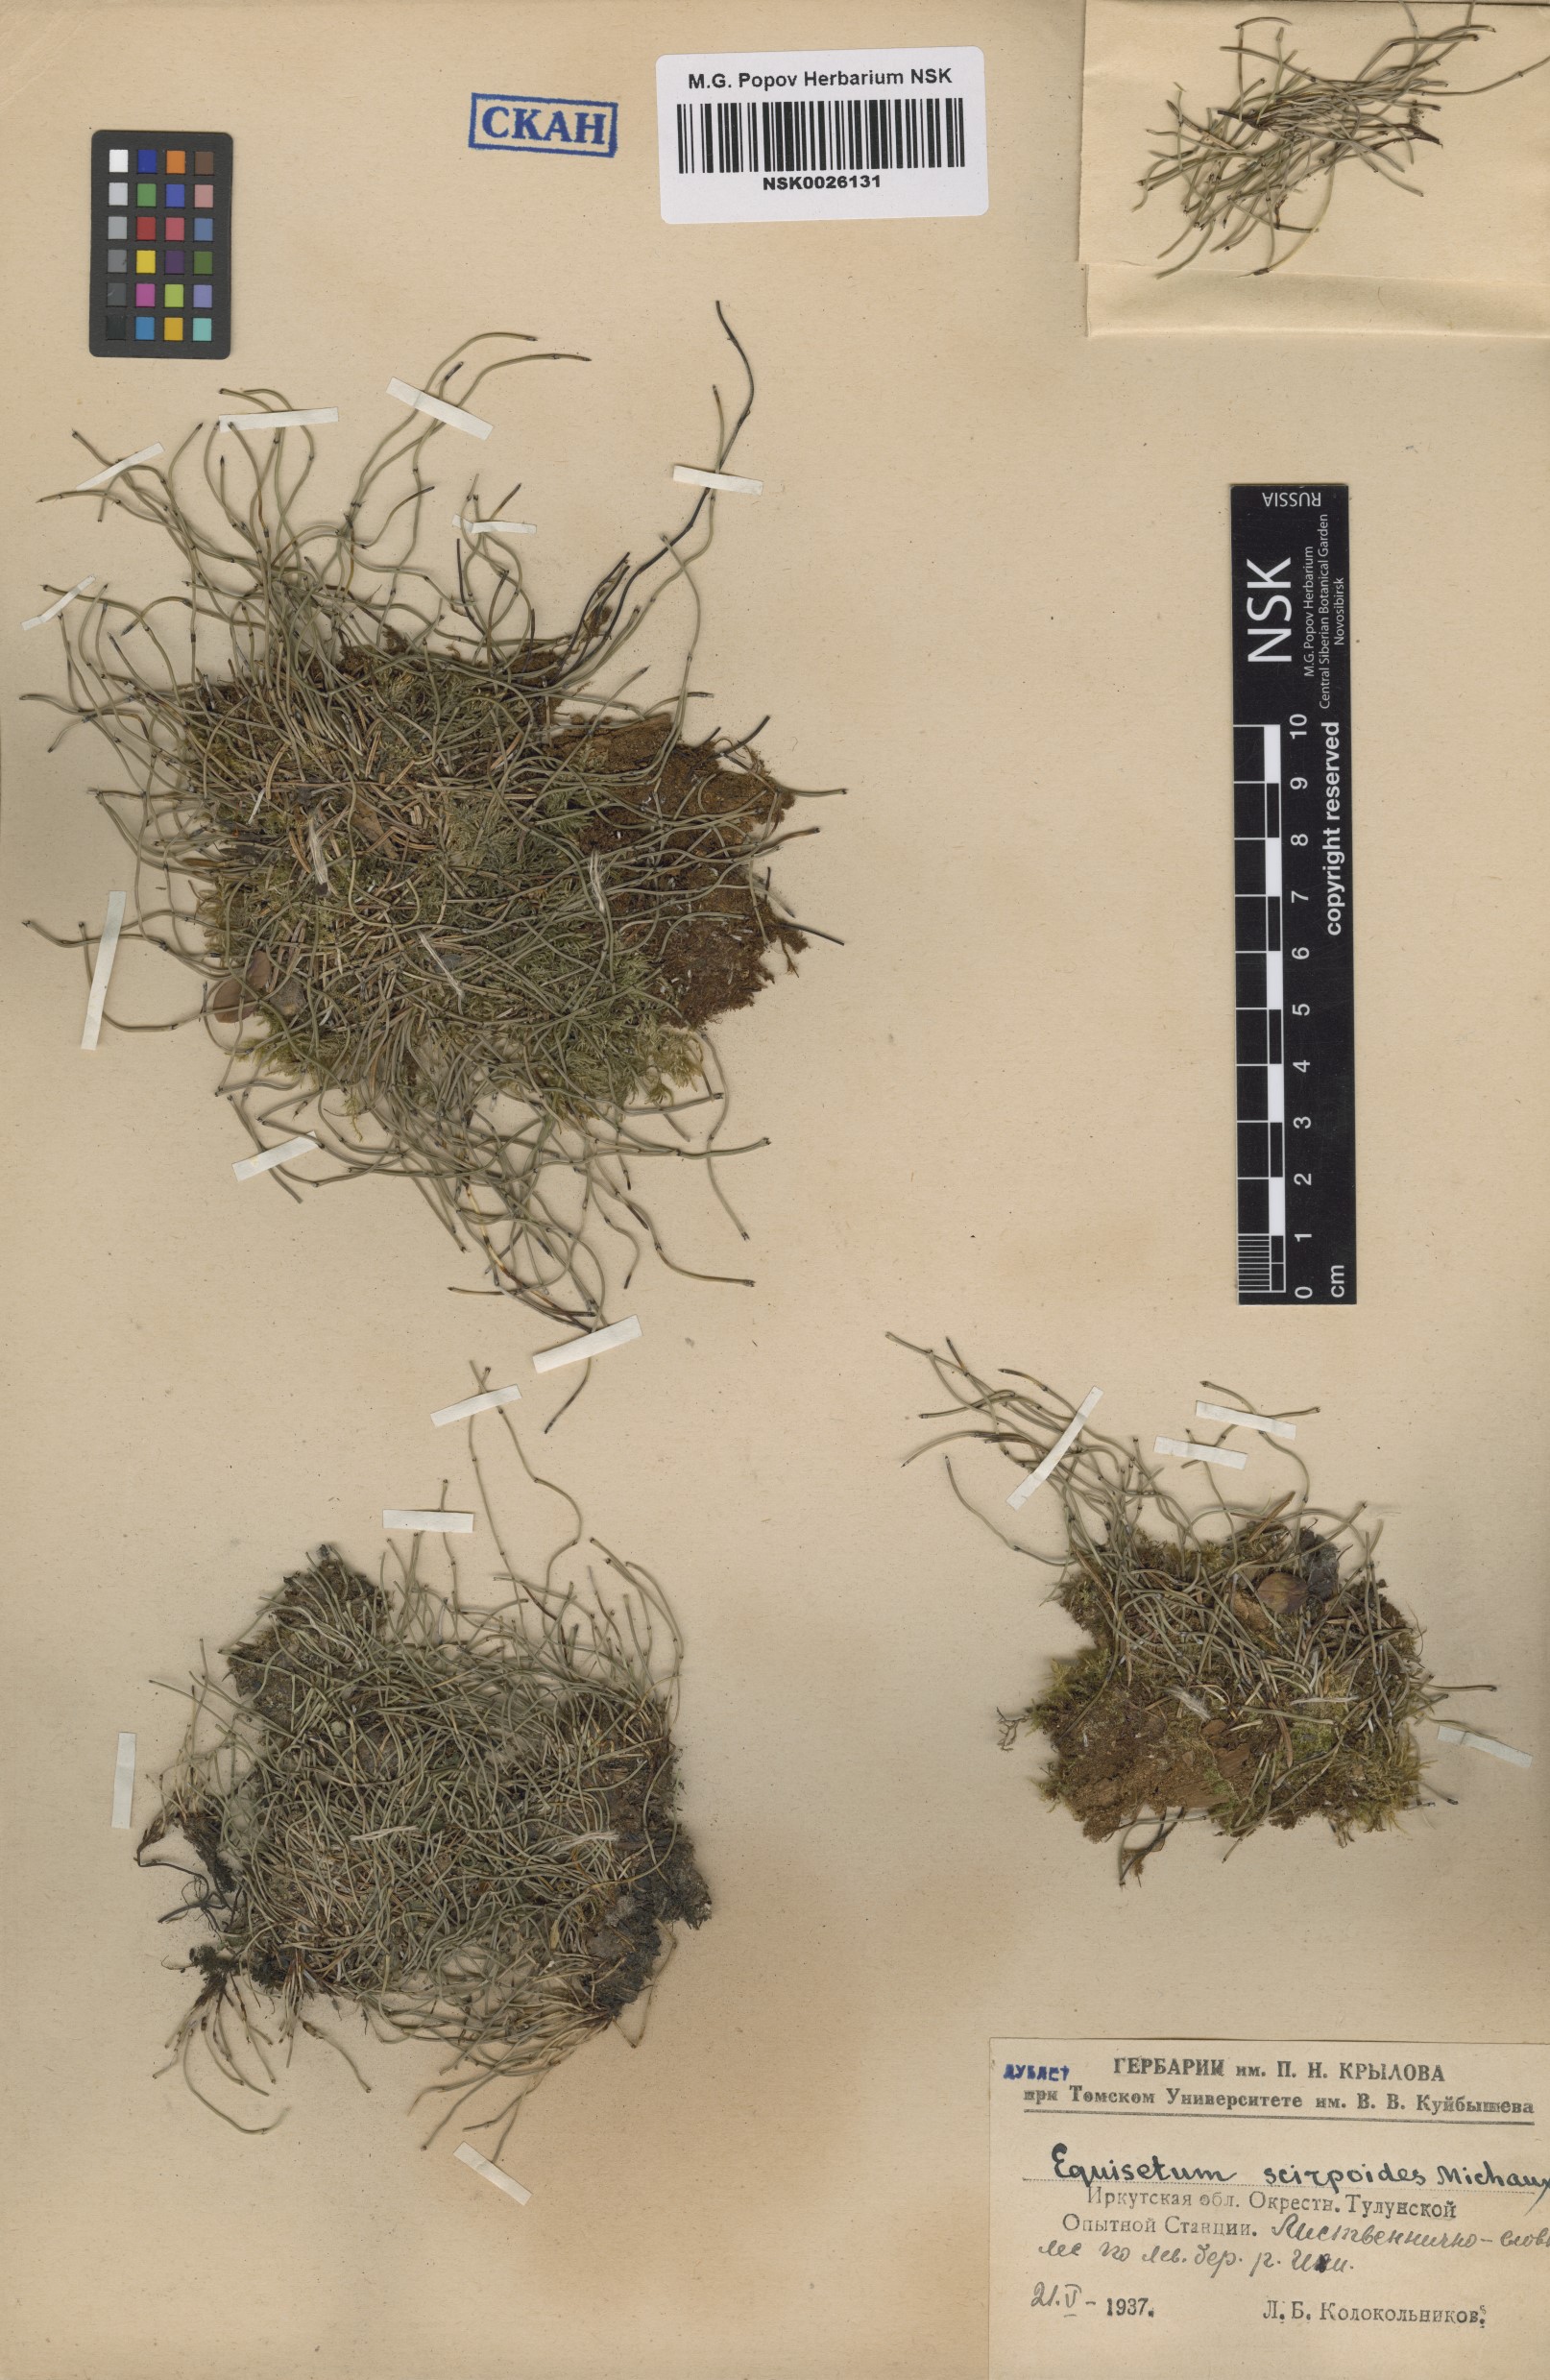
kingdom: Plantae
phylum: Tracheophyta
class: Polypodiopsida
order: Equisetales
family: Equisetaceae
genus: Equisetum
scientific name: Equisetum scirpoides
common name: Delicate horsetail
